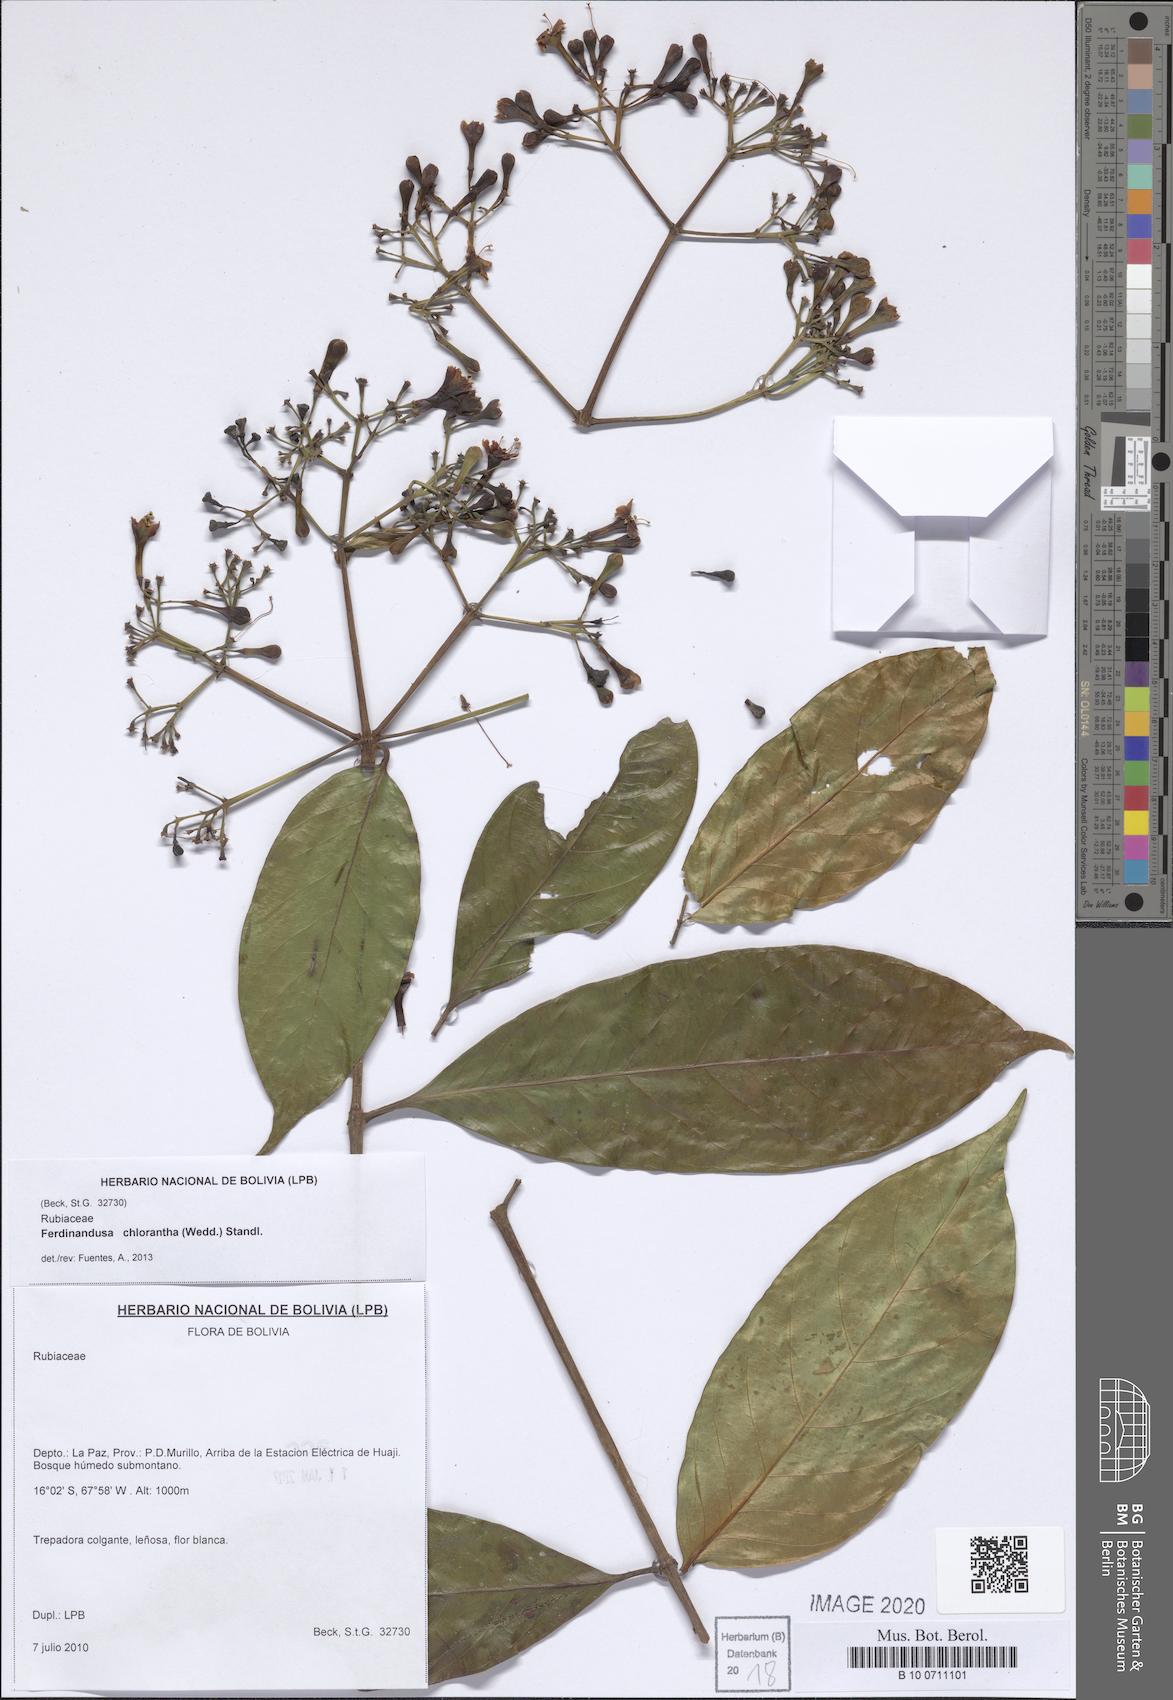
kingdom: Plantae
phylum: Tracheophyta
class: Magnoliopsida
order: Gentianales
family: Rubiaceae
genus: Ferdinandusa
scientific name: Ferdinandusa chlorantha
